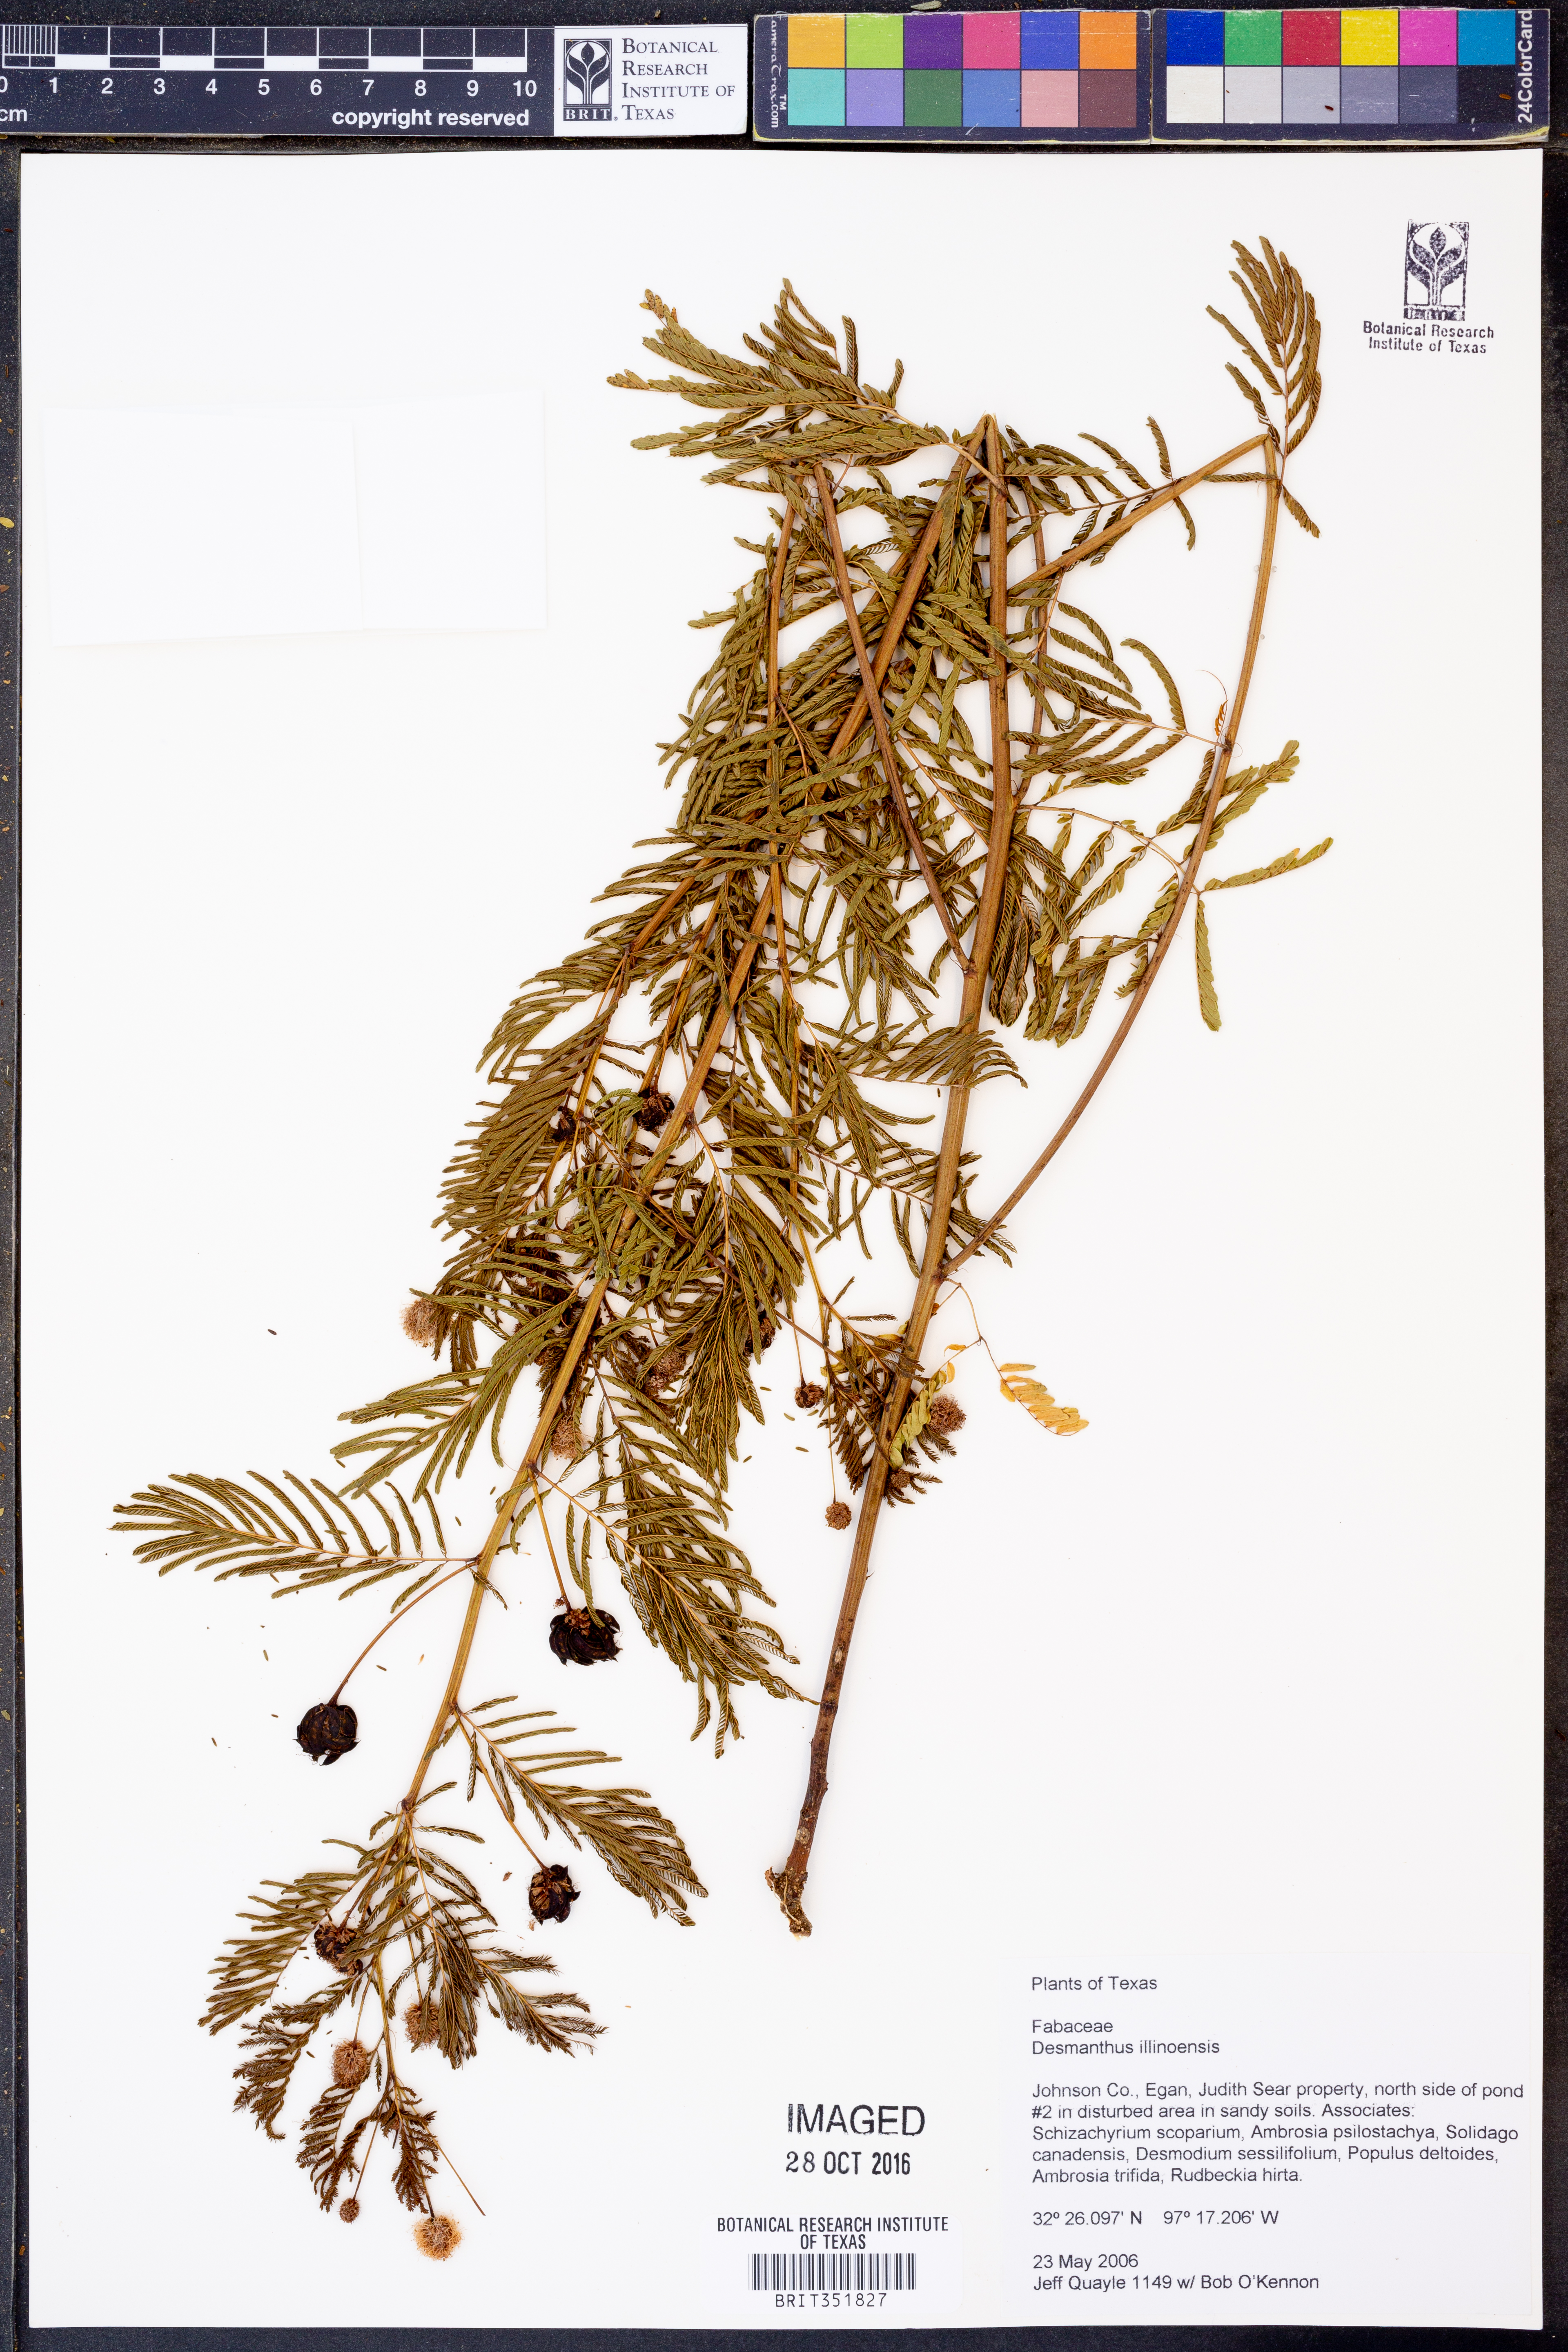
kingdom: Plantae
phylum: Tracheophyta
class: Magnoliopsida
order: Fabales
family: Fabaceae
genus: Desmanthus
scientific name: Desmanthus illinoensis
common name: Illinois bundle-flower
